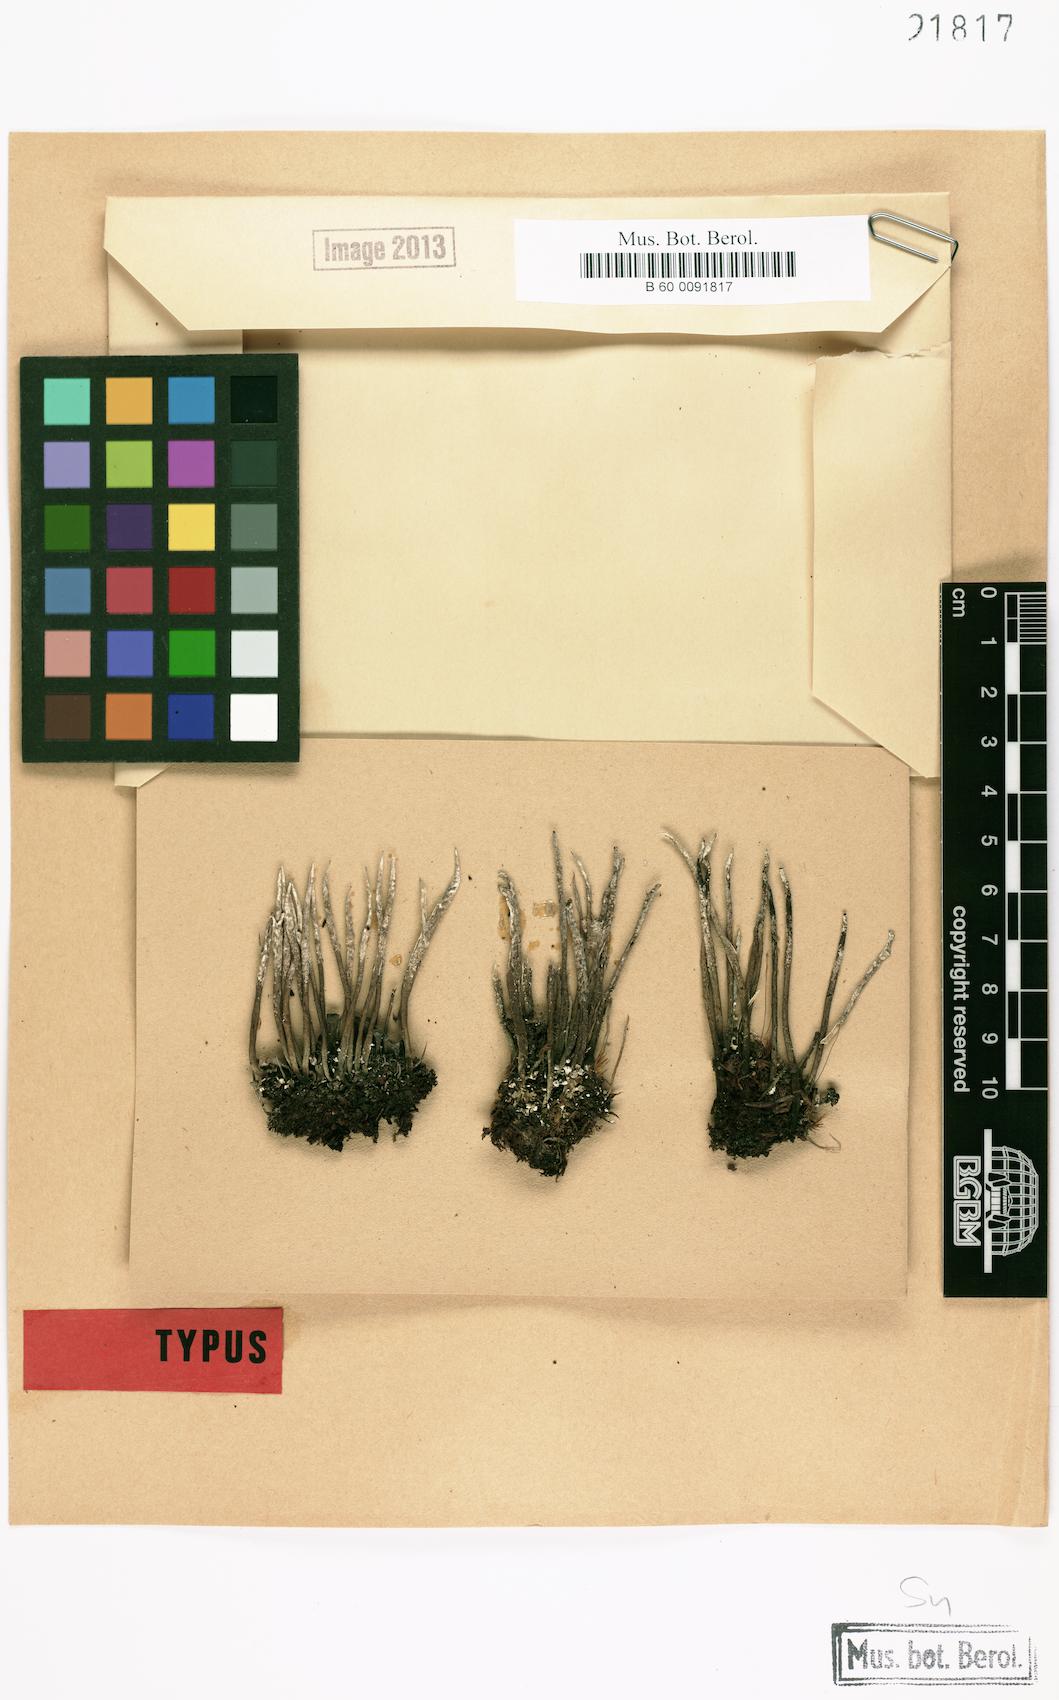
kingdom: Fungi
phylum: Ascomycota
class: Lecanoromycetes
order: Lecanorales
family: Cladoniaceae
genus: Cladonia
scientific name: Cladonia cornuta
